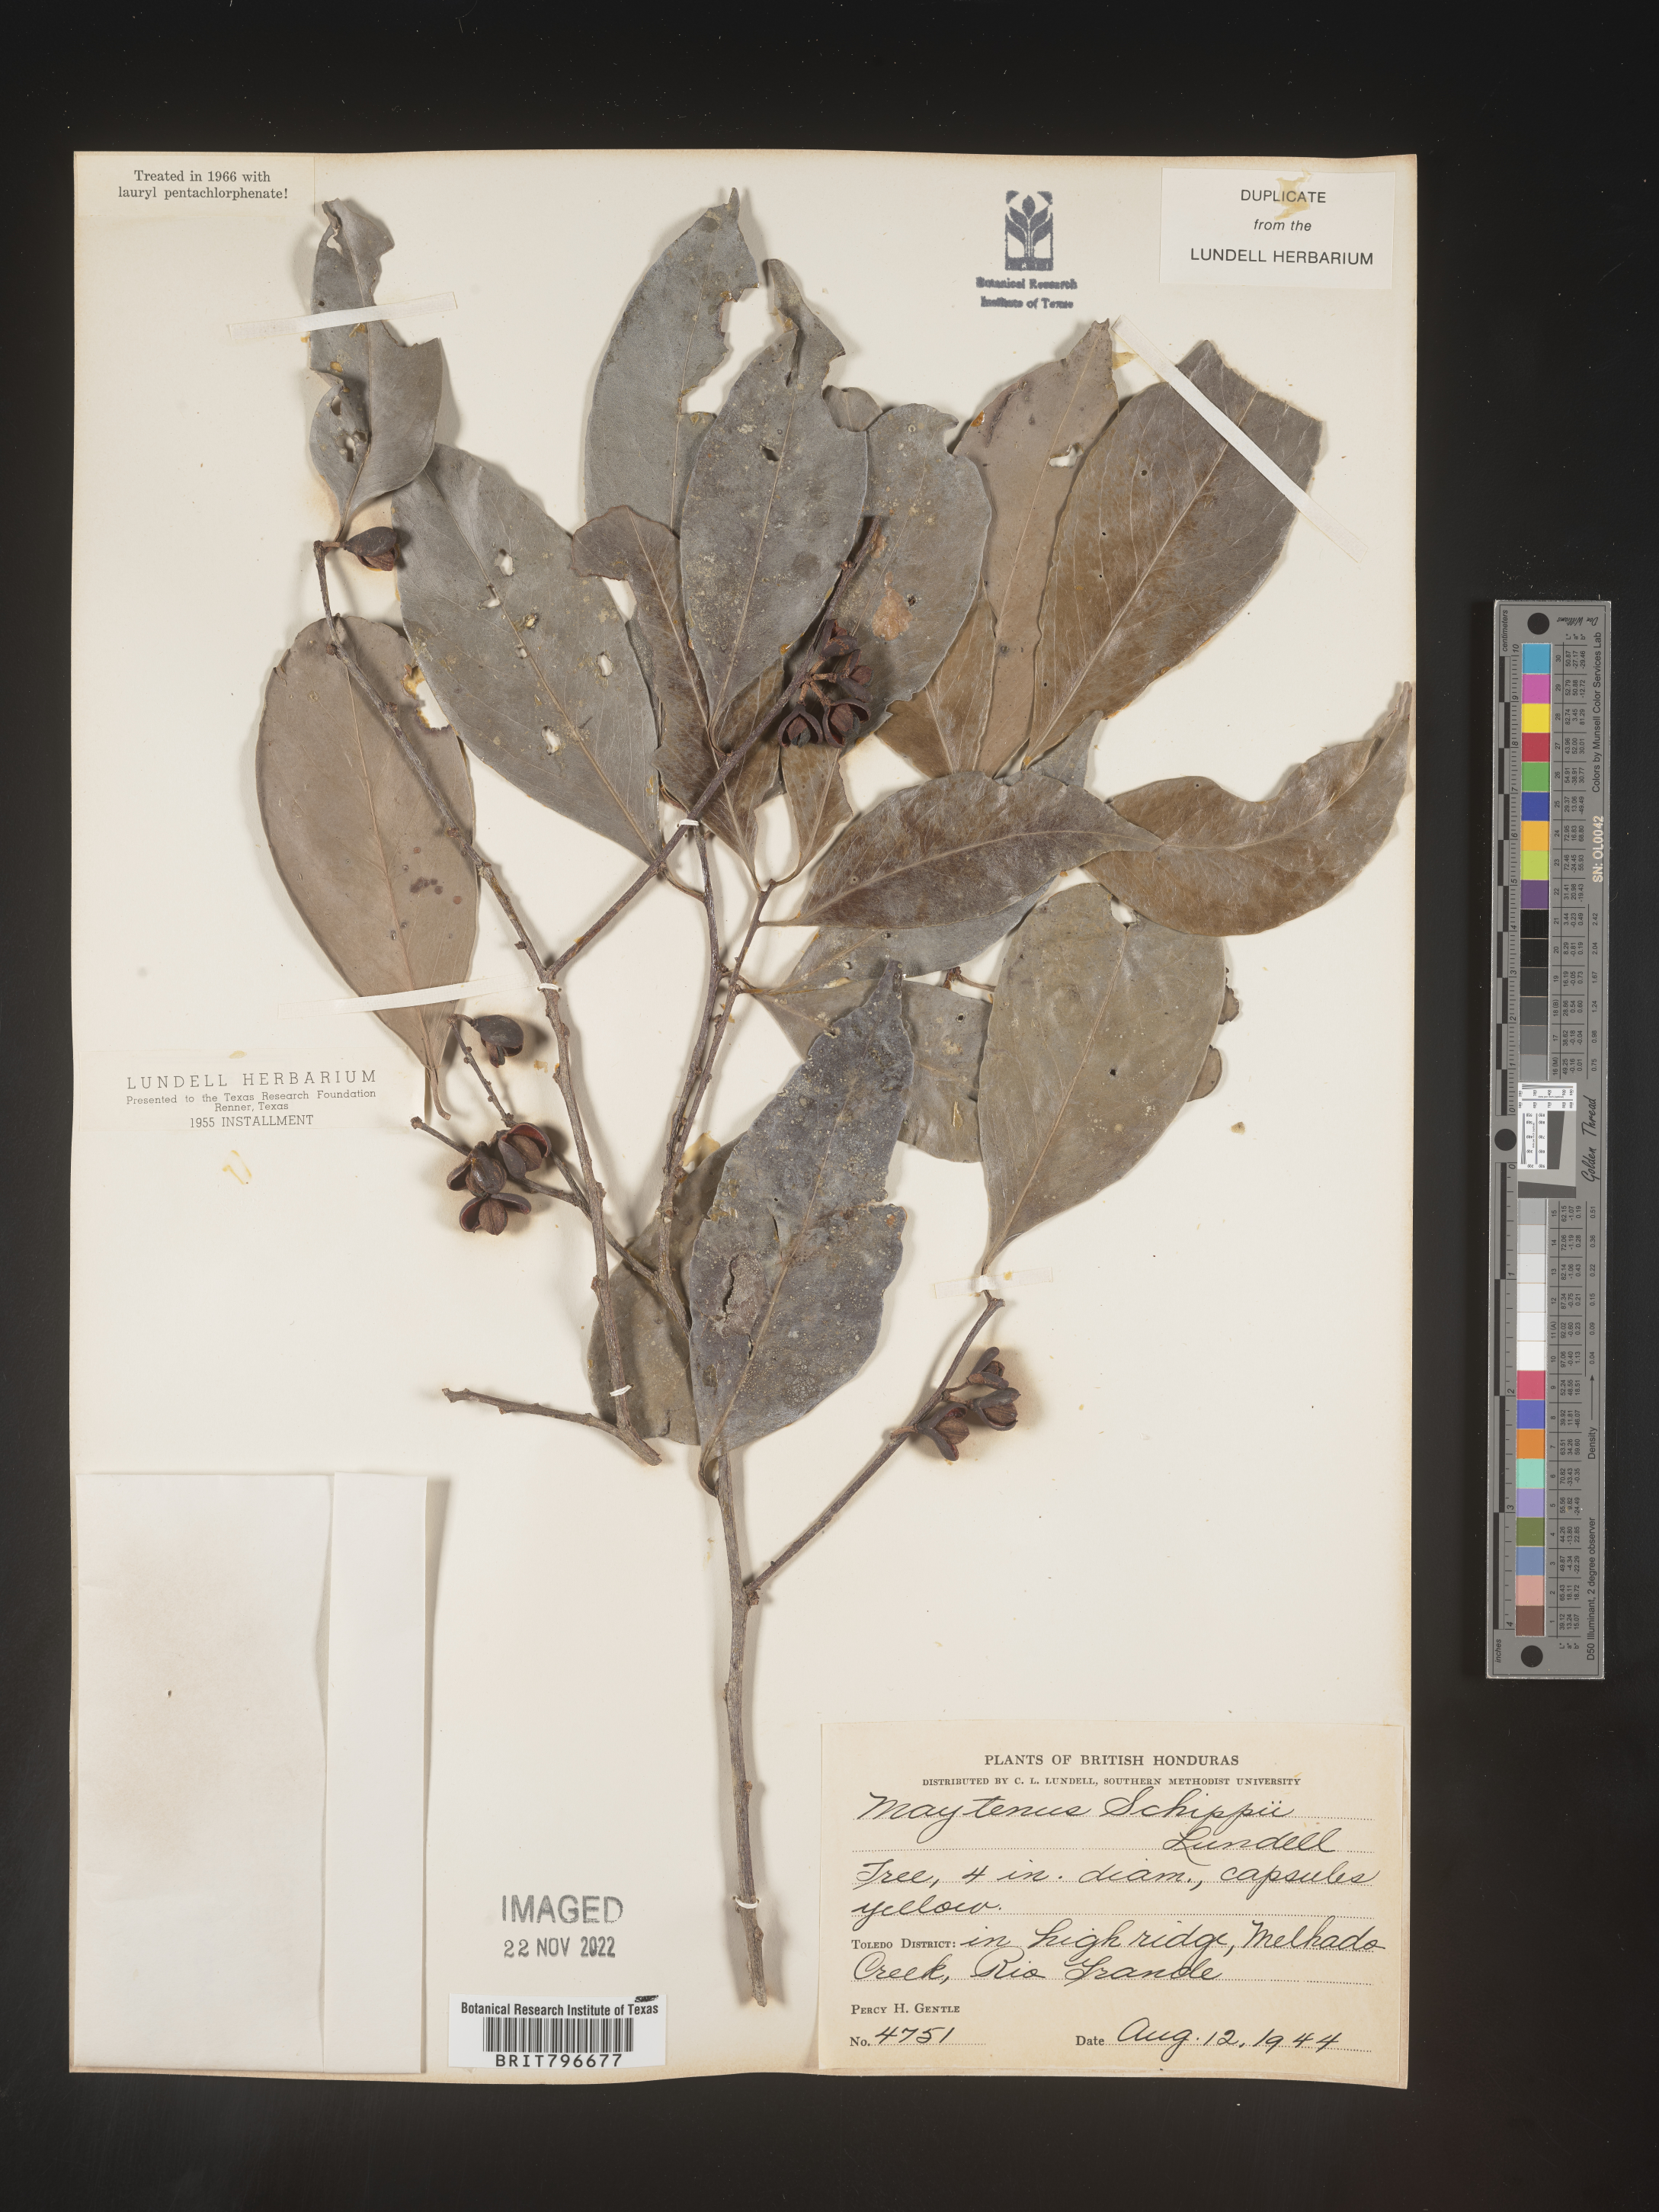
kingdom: Plantae
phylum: Tracheophyta
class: Magnoliopsida
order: Celastrales
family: Celastraceae
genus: Monteverdia
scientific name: Monteverdia schippii
